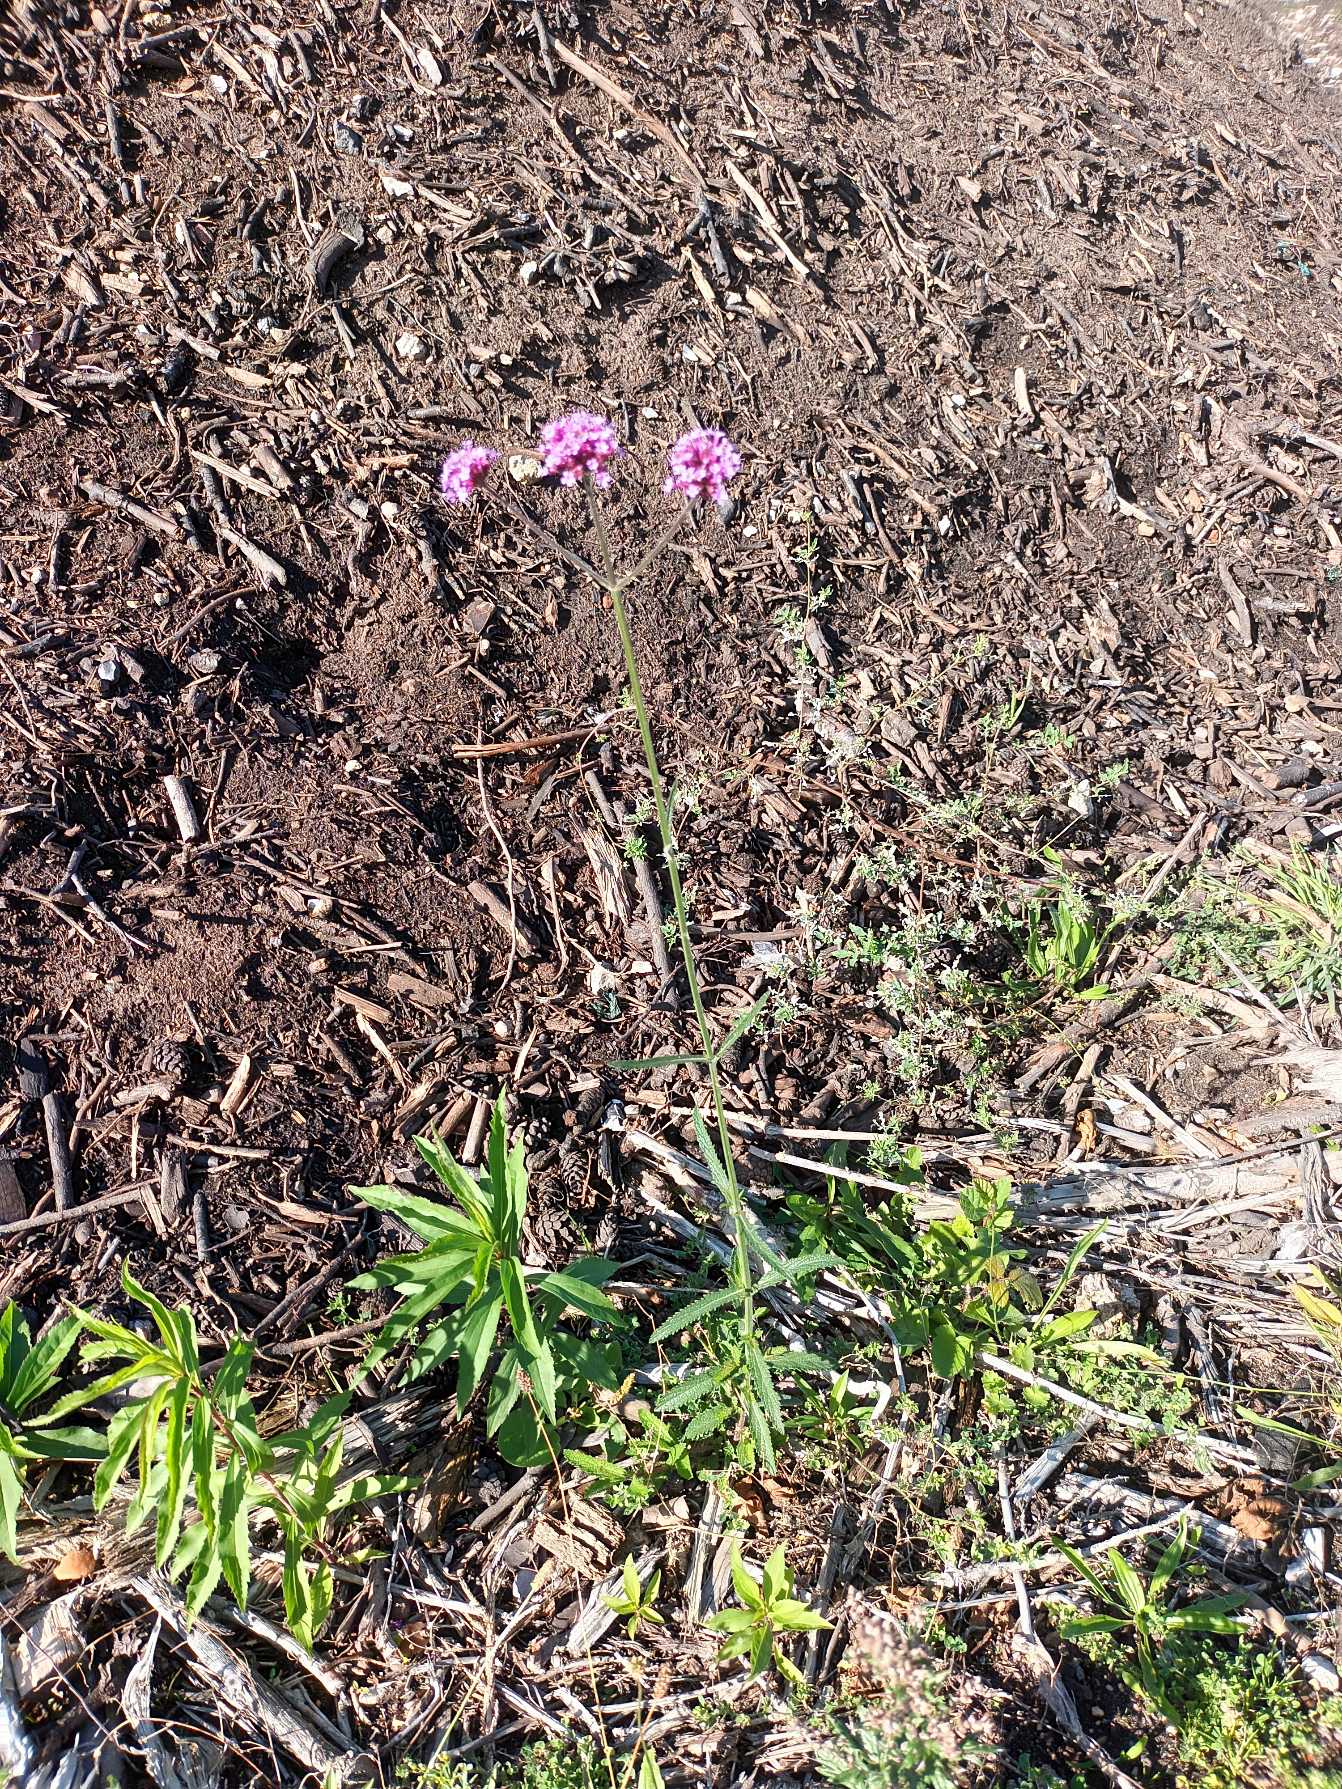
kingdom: Plantae
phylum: Tracheophyta
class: Magnoliopsida
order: Lamiales
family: Verbenaceae
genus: Verbena
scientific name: Verbena bonariensis
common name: Kæmpe-jernurt
